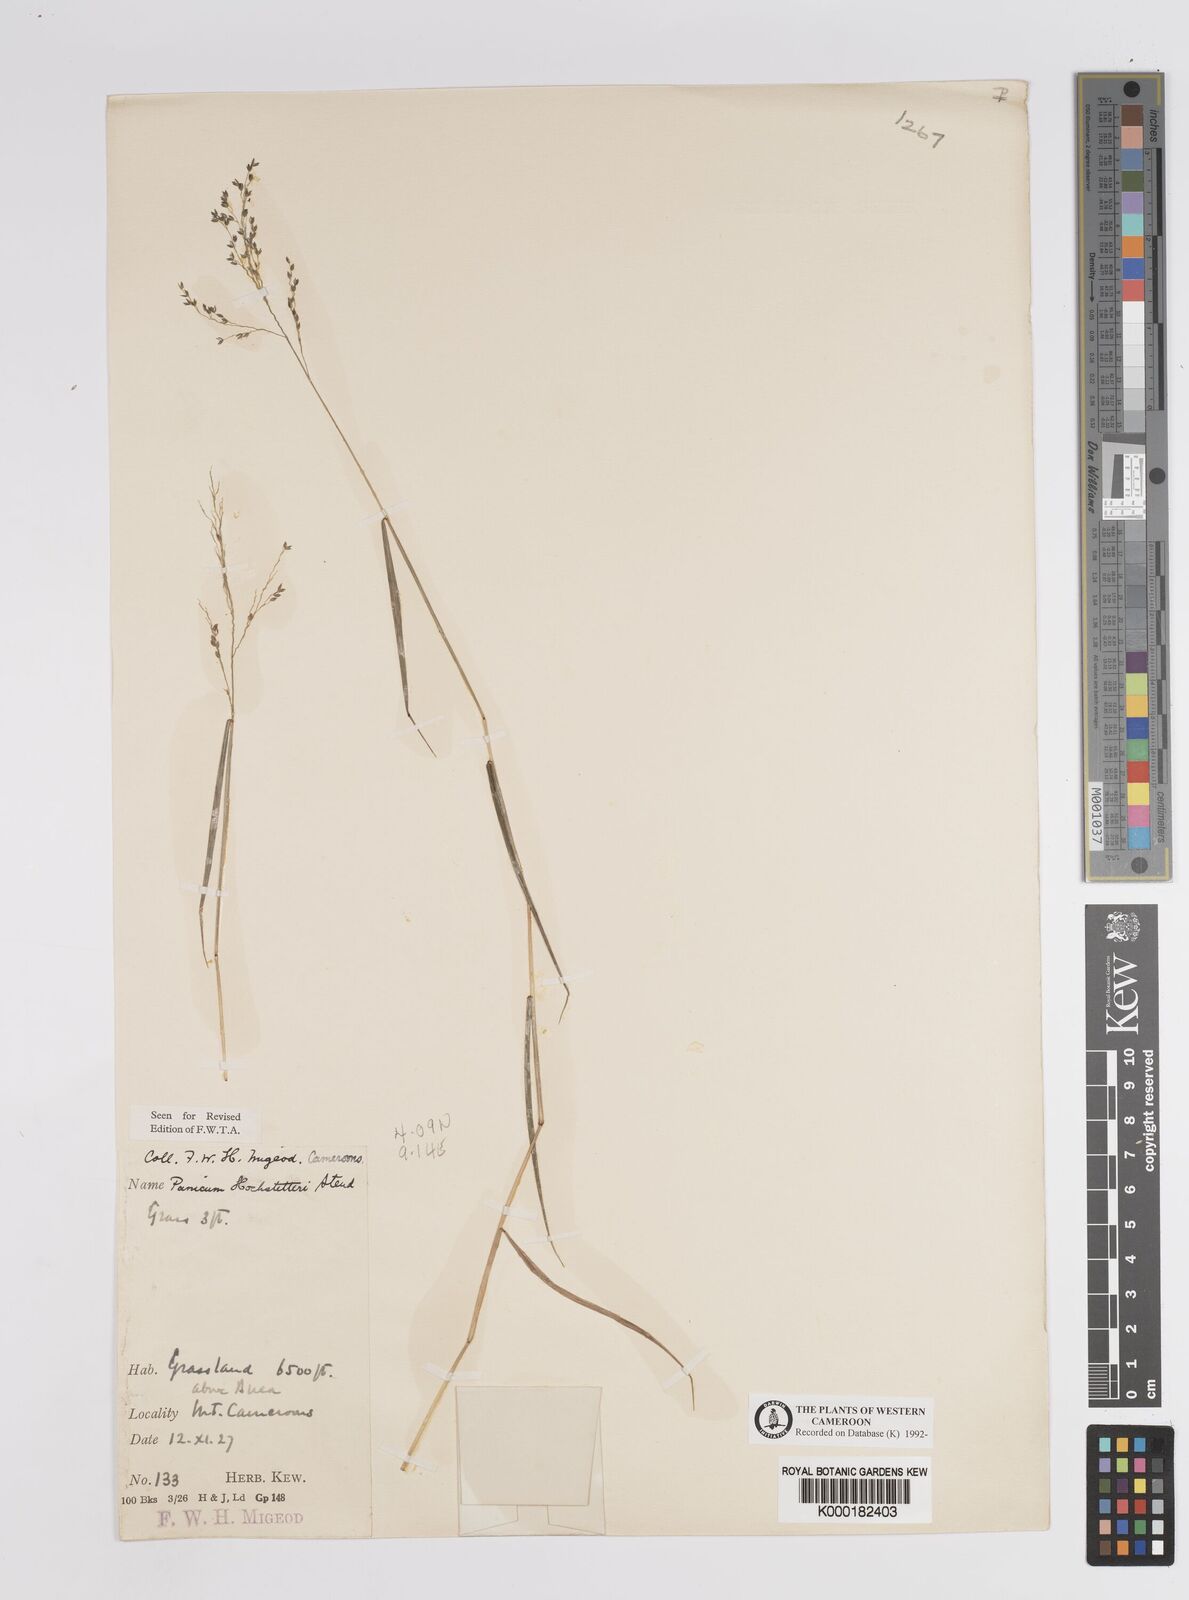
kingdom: Plantae
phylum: Tracheophyta
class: Liliopsida
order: Poales
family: Poaceae
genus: Panicum
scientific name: Panicum hochstetteri
